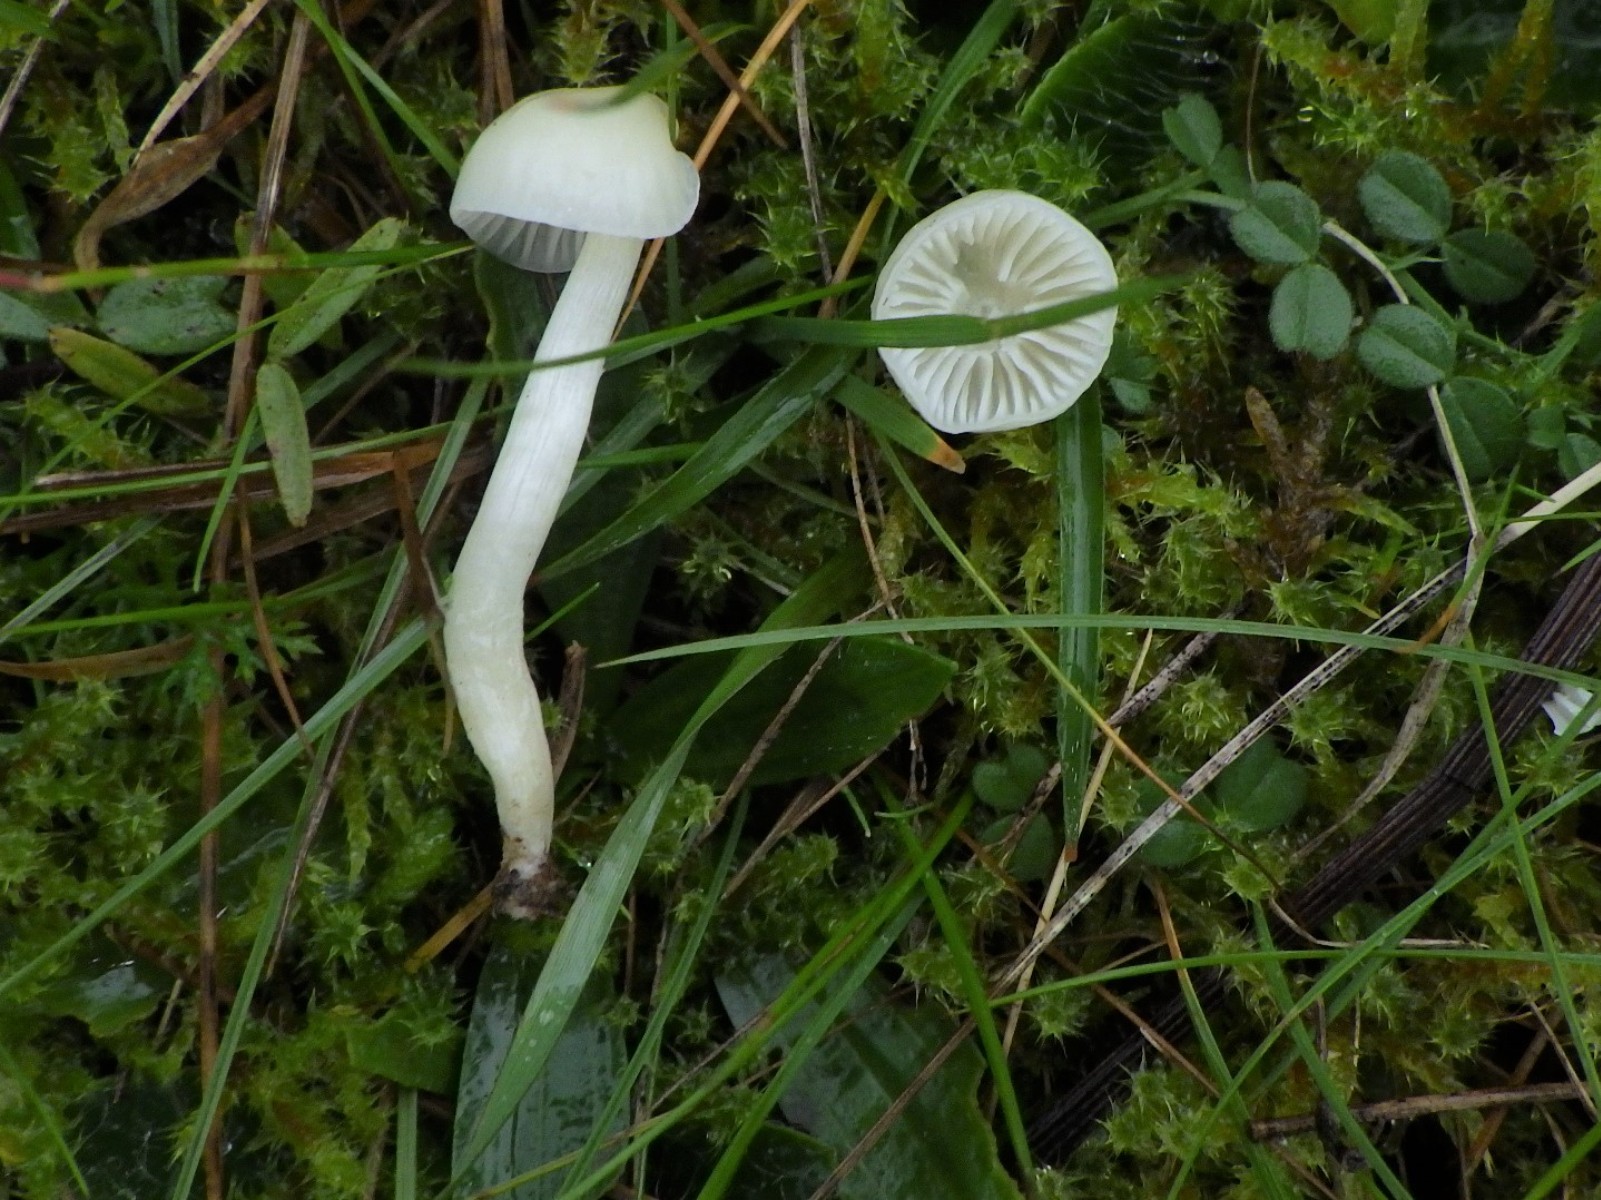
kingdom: Fungi
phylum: Basidiomycota
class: Agaricomycetes
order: Agaricales
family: Hygrophoraceae
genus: Cuphophyllus
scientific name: Cuphophyllus russocoriaceus
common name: ruslæder-vokshat
